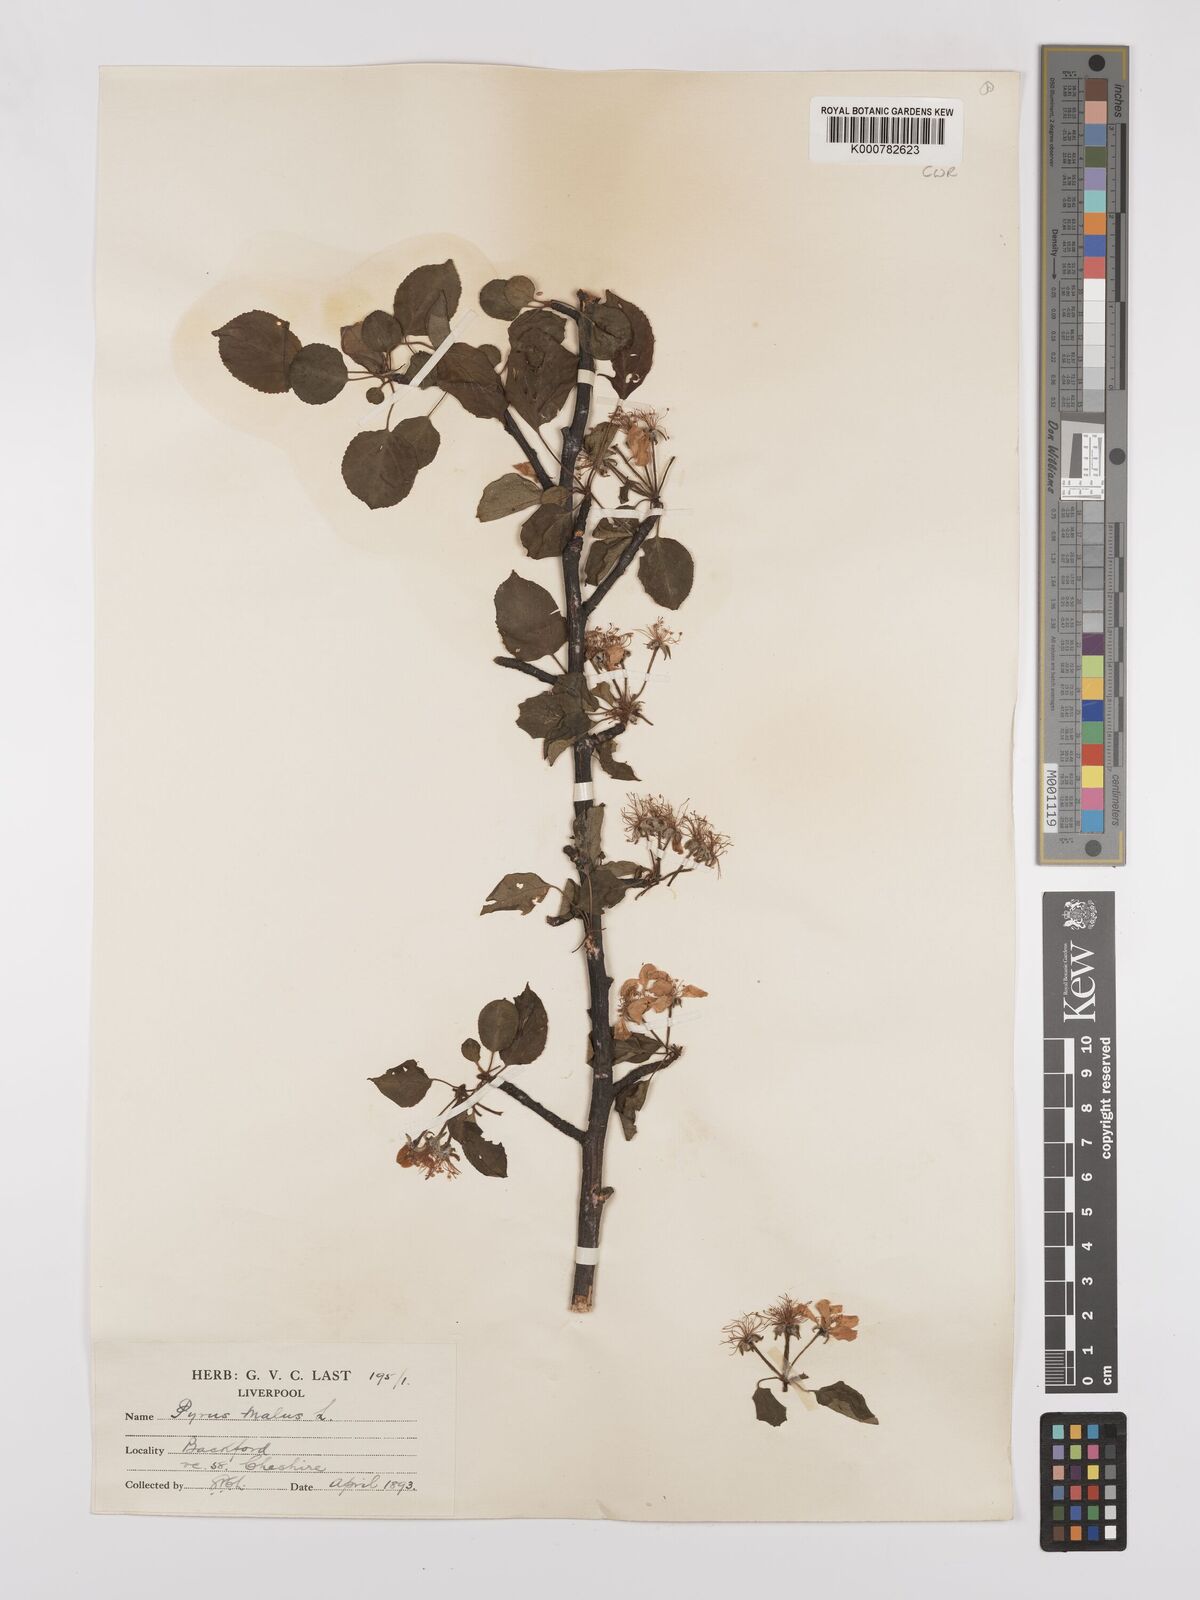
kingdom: Plantae
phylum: Tracheophyta
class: Magnoliopsida
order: Rosales
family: Rosaceae
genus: Malus
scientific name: Malus domestica
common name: Apple
